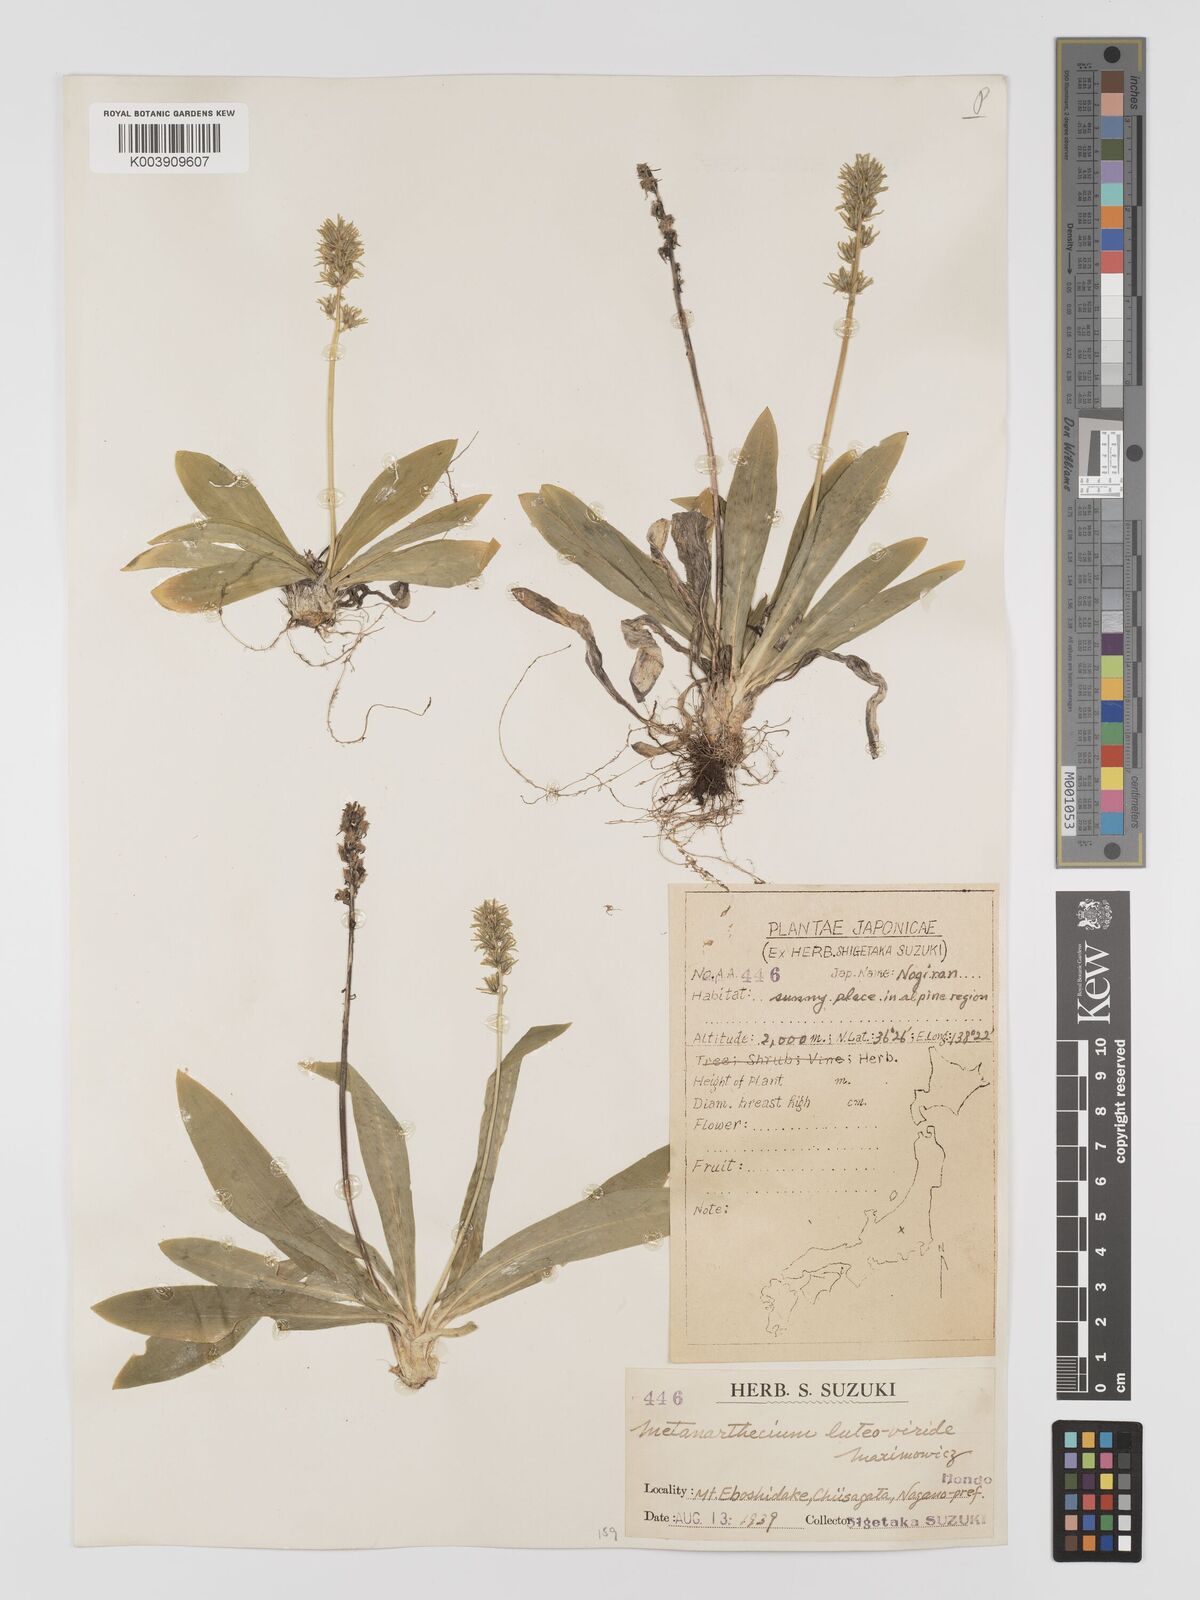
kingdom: Plantae
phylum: Tracheophyta
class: Liliopsida
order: Dioscoreales
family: Nartheciaceae
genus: Metanarthecium
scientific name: Metanarthecium luteoviride
